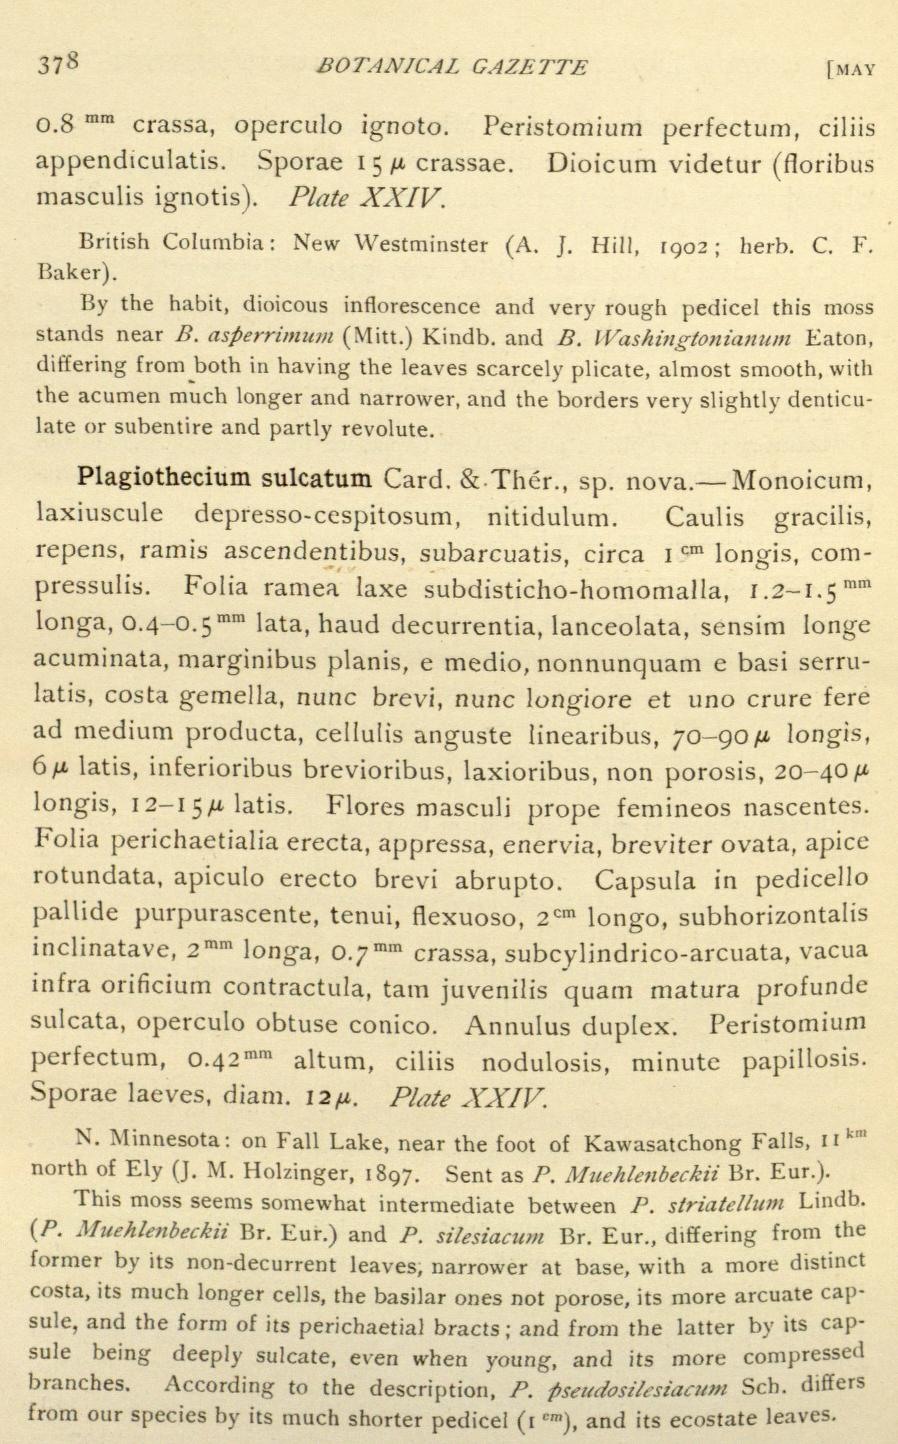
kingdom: Plantae
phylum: Bryophyta
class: Bryopsida
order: Hypnales
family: Brachytheciaceae
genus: Brachythecium
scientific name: Brachythecium asperrimum
